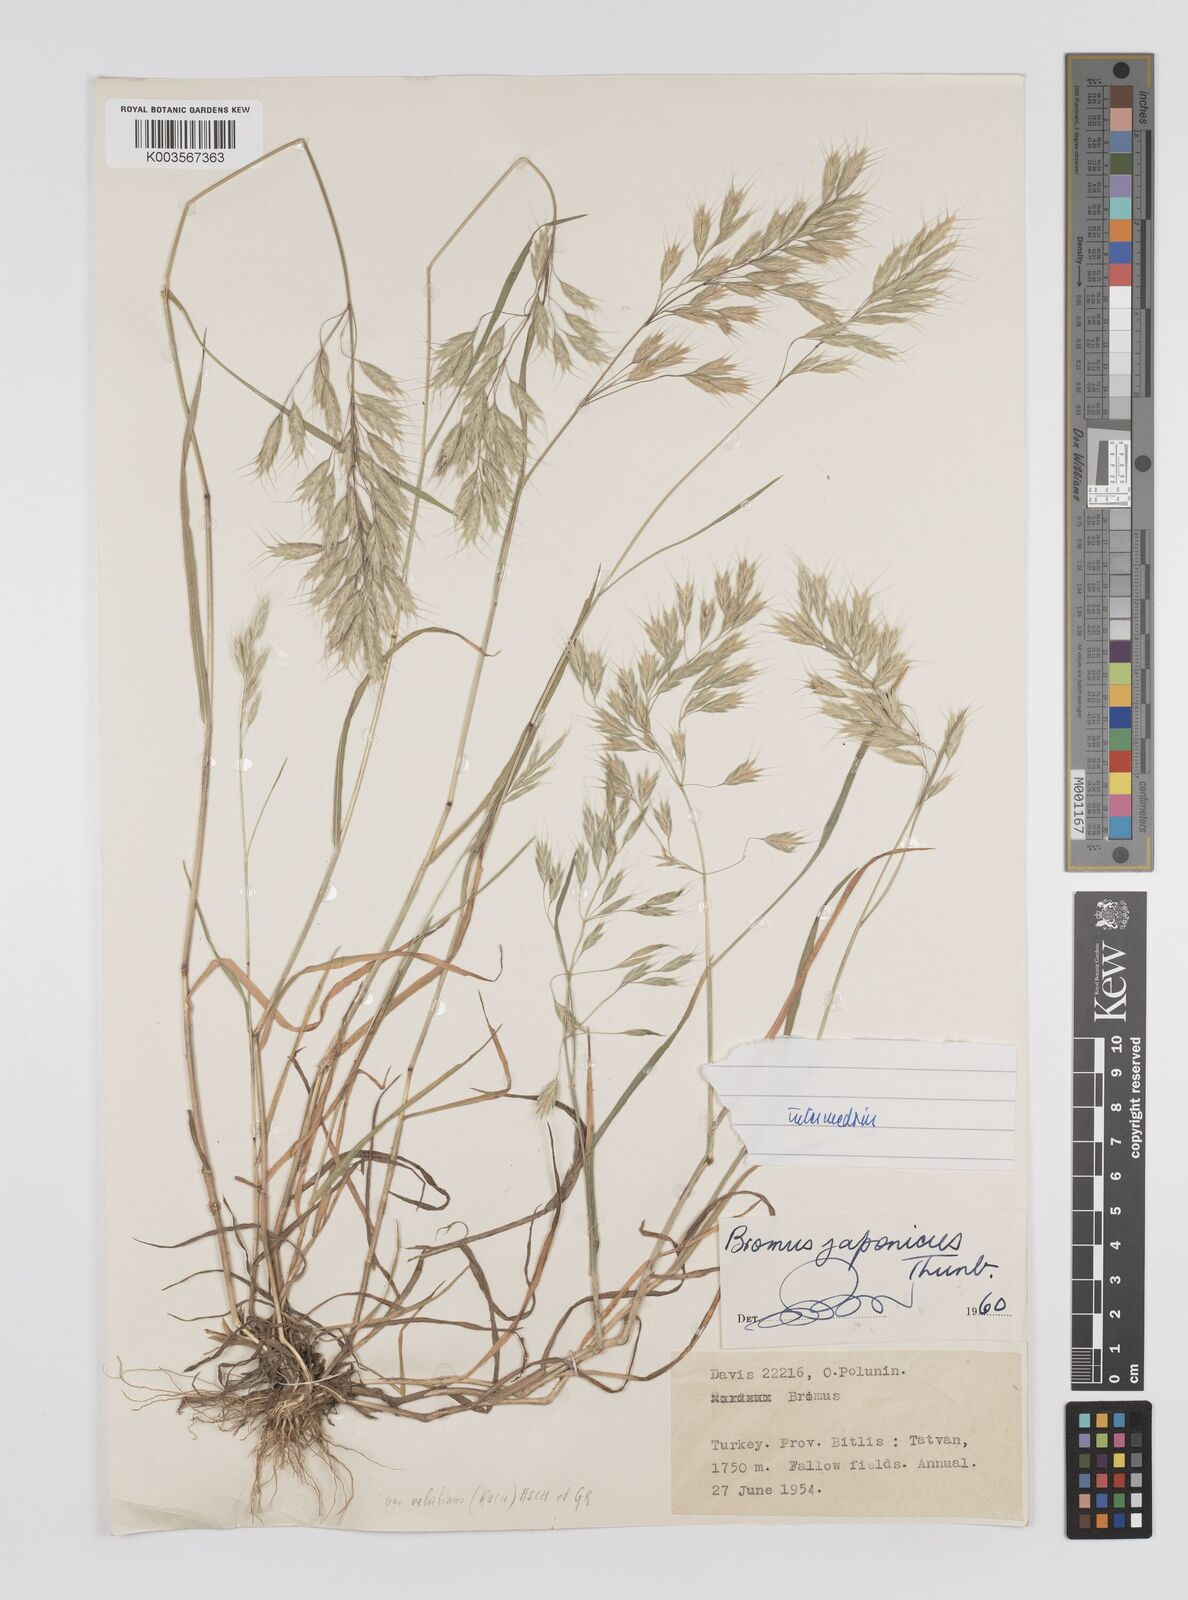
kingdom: Plantae
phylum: Tracheophyta
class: Liliopsida
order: Poales
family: Poaceae
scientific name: Poaceae
